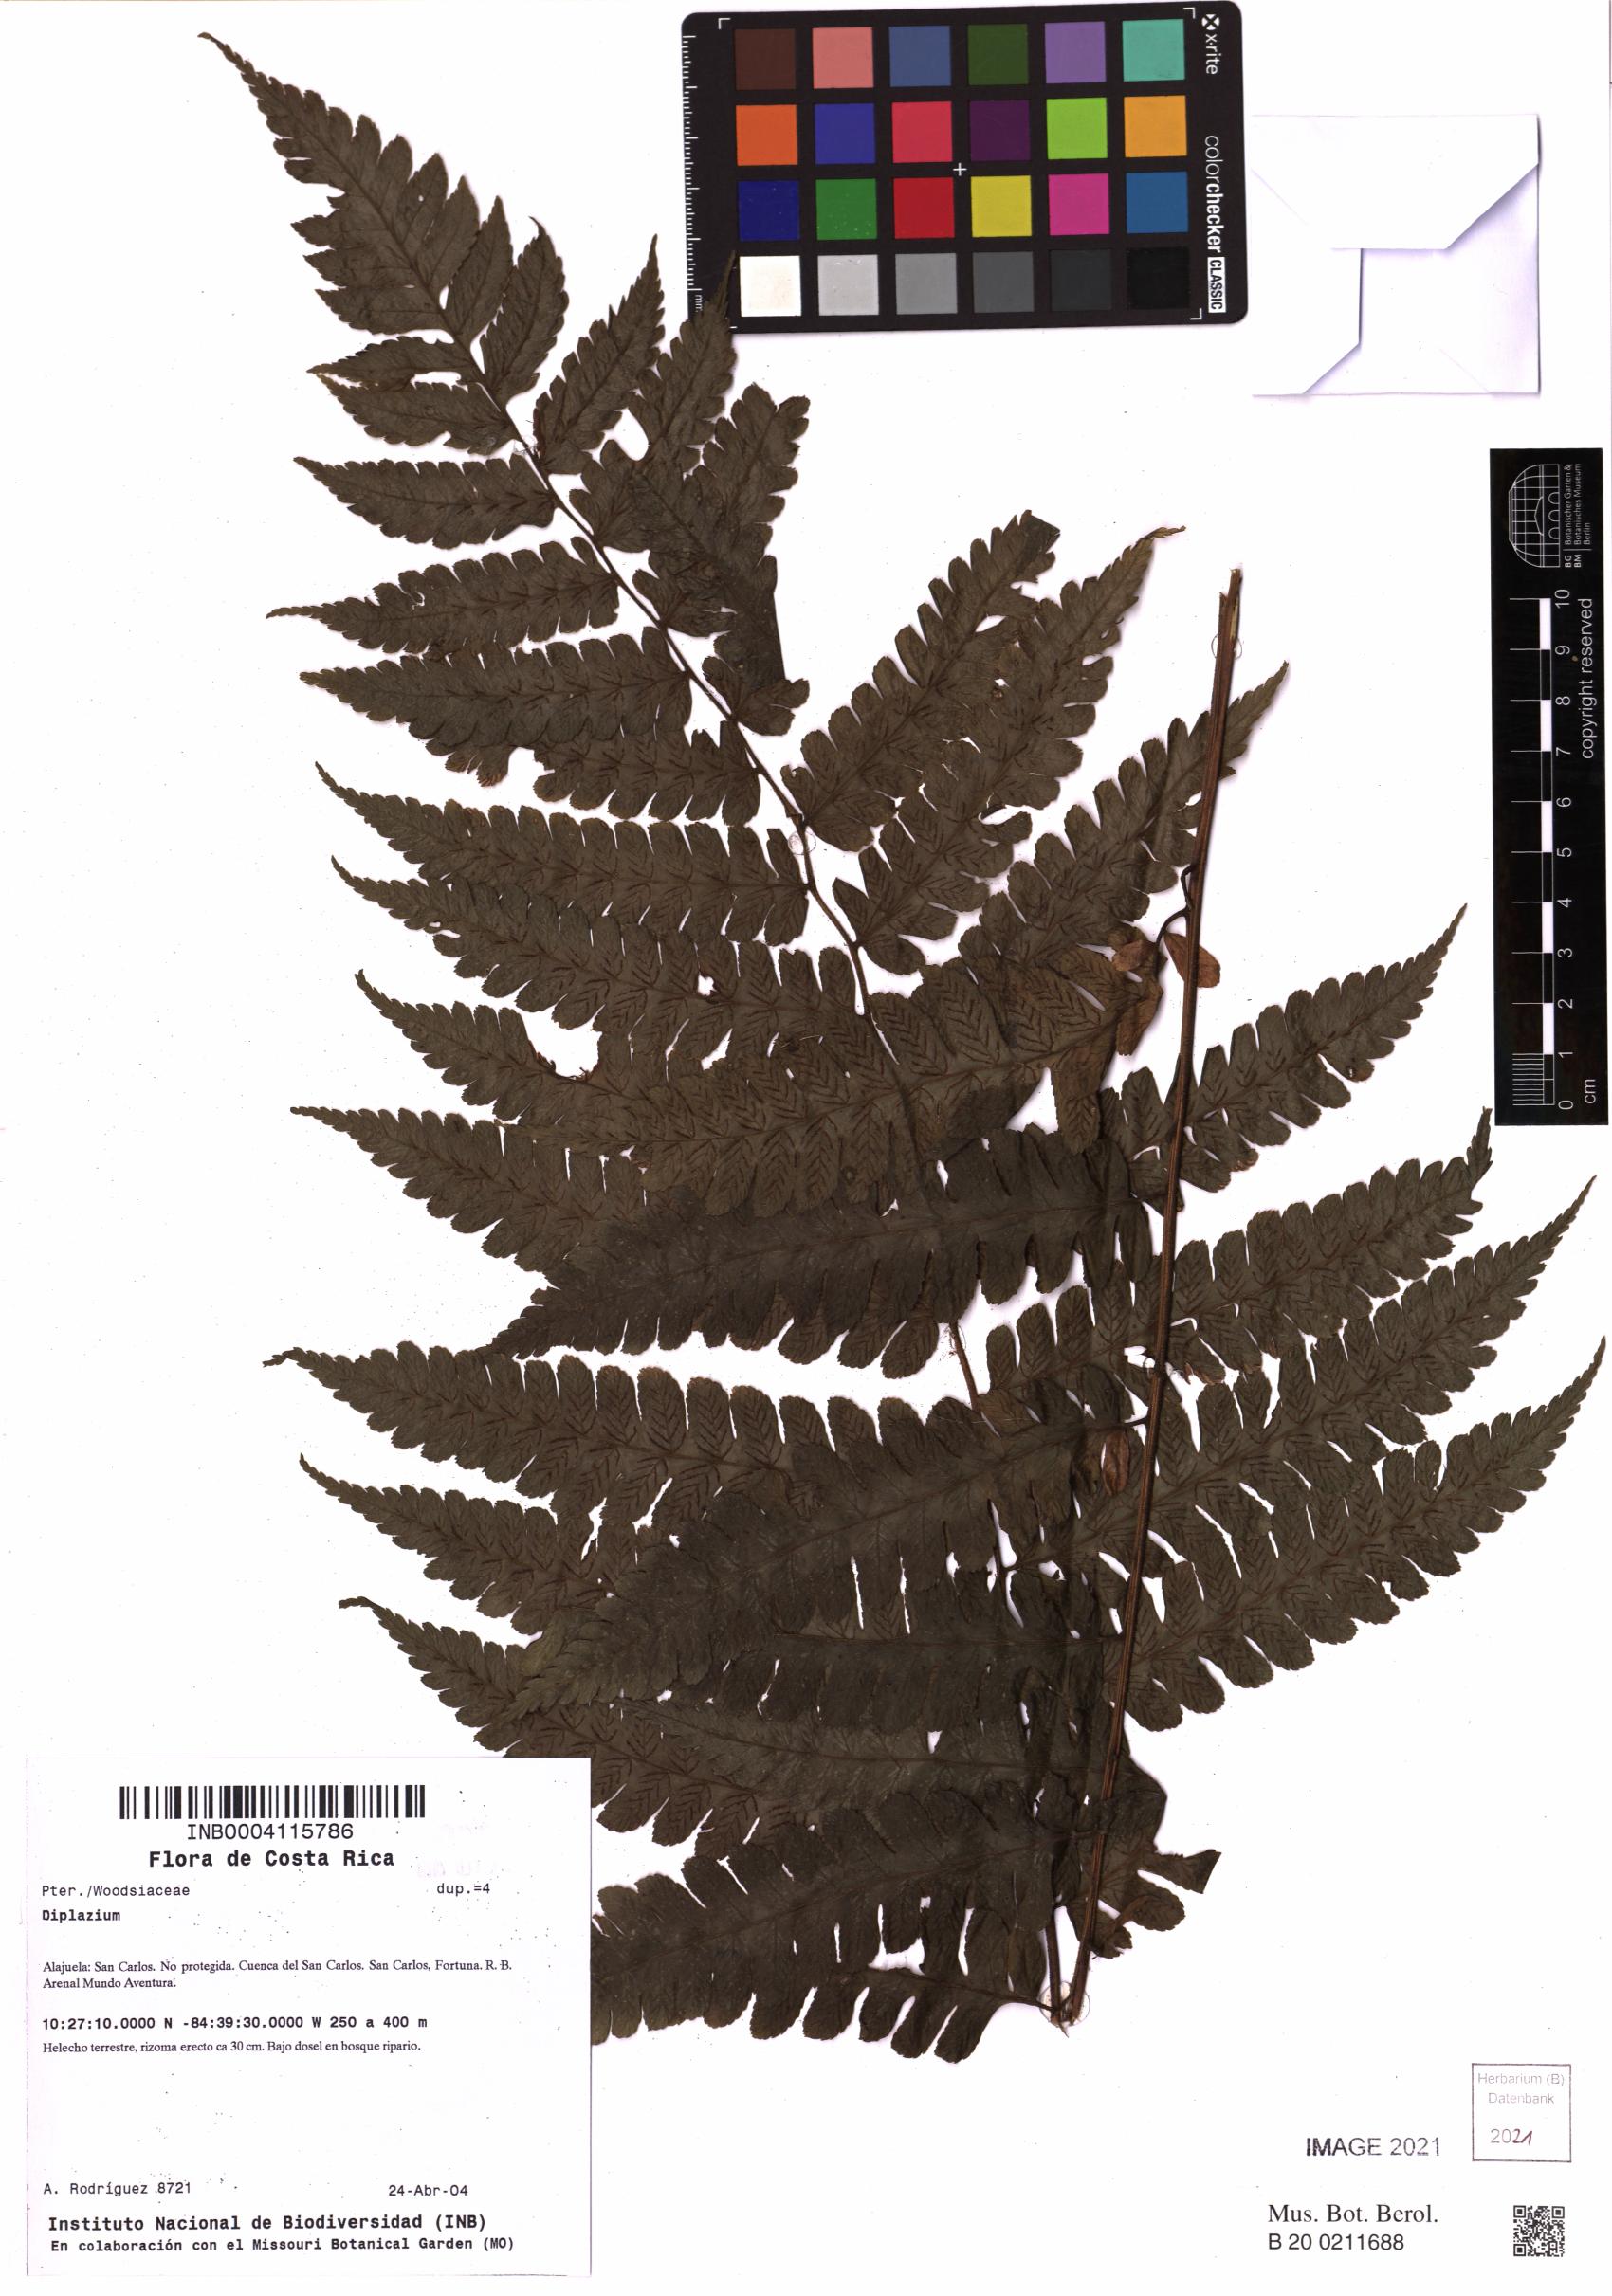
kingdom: Plantae
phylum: Tracheophyta
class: Polypodiopsida
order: Polypodiales
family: Athyriaceae
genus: Diplazium
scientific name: Diplazium
